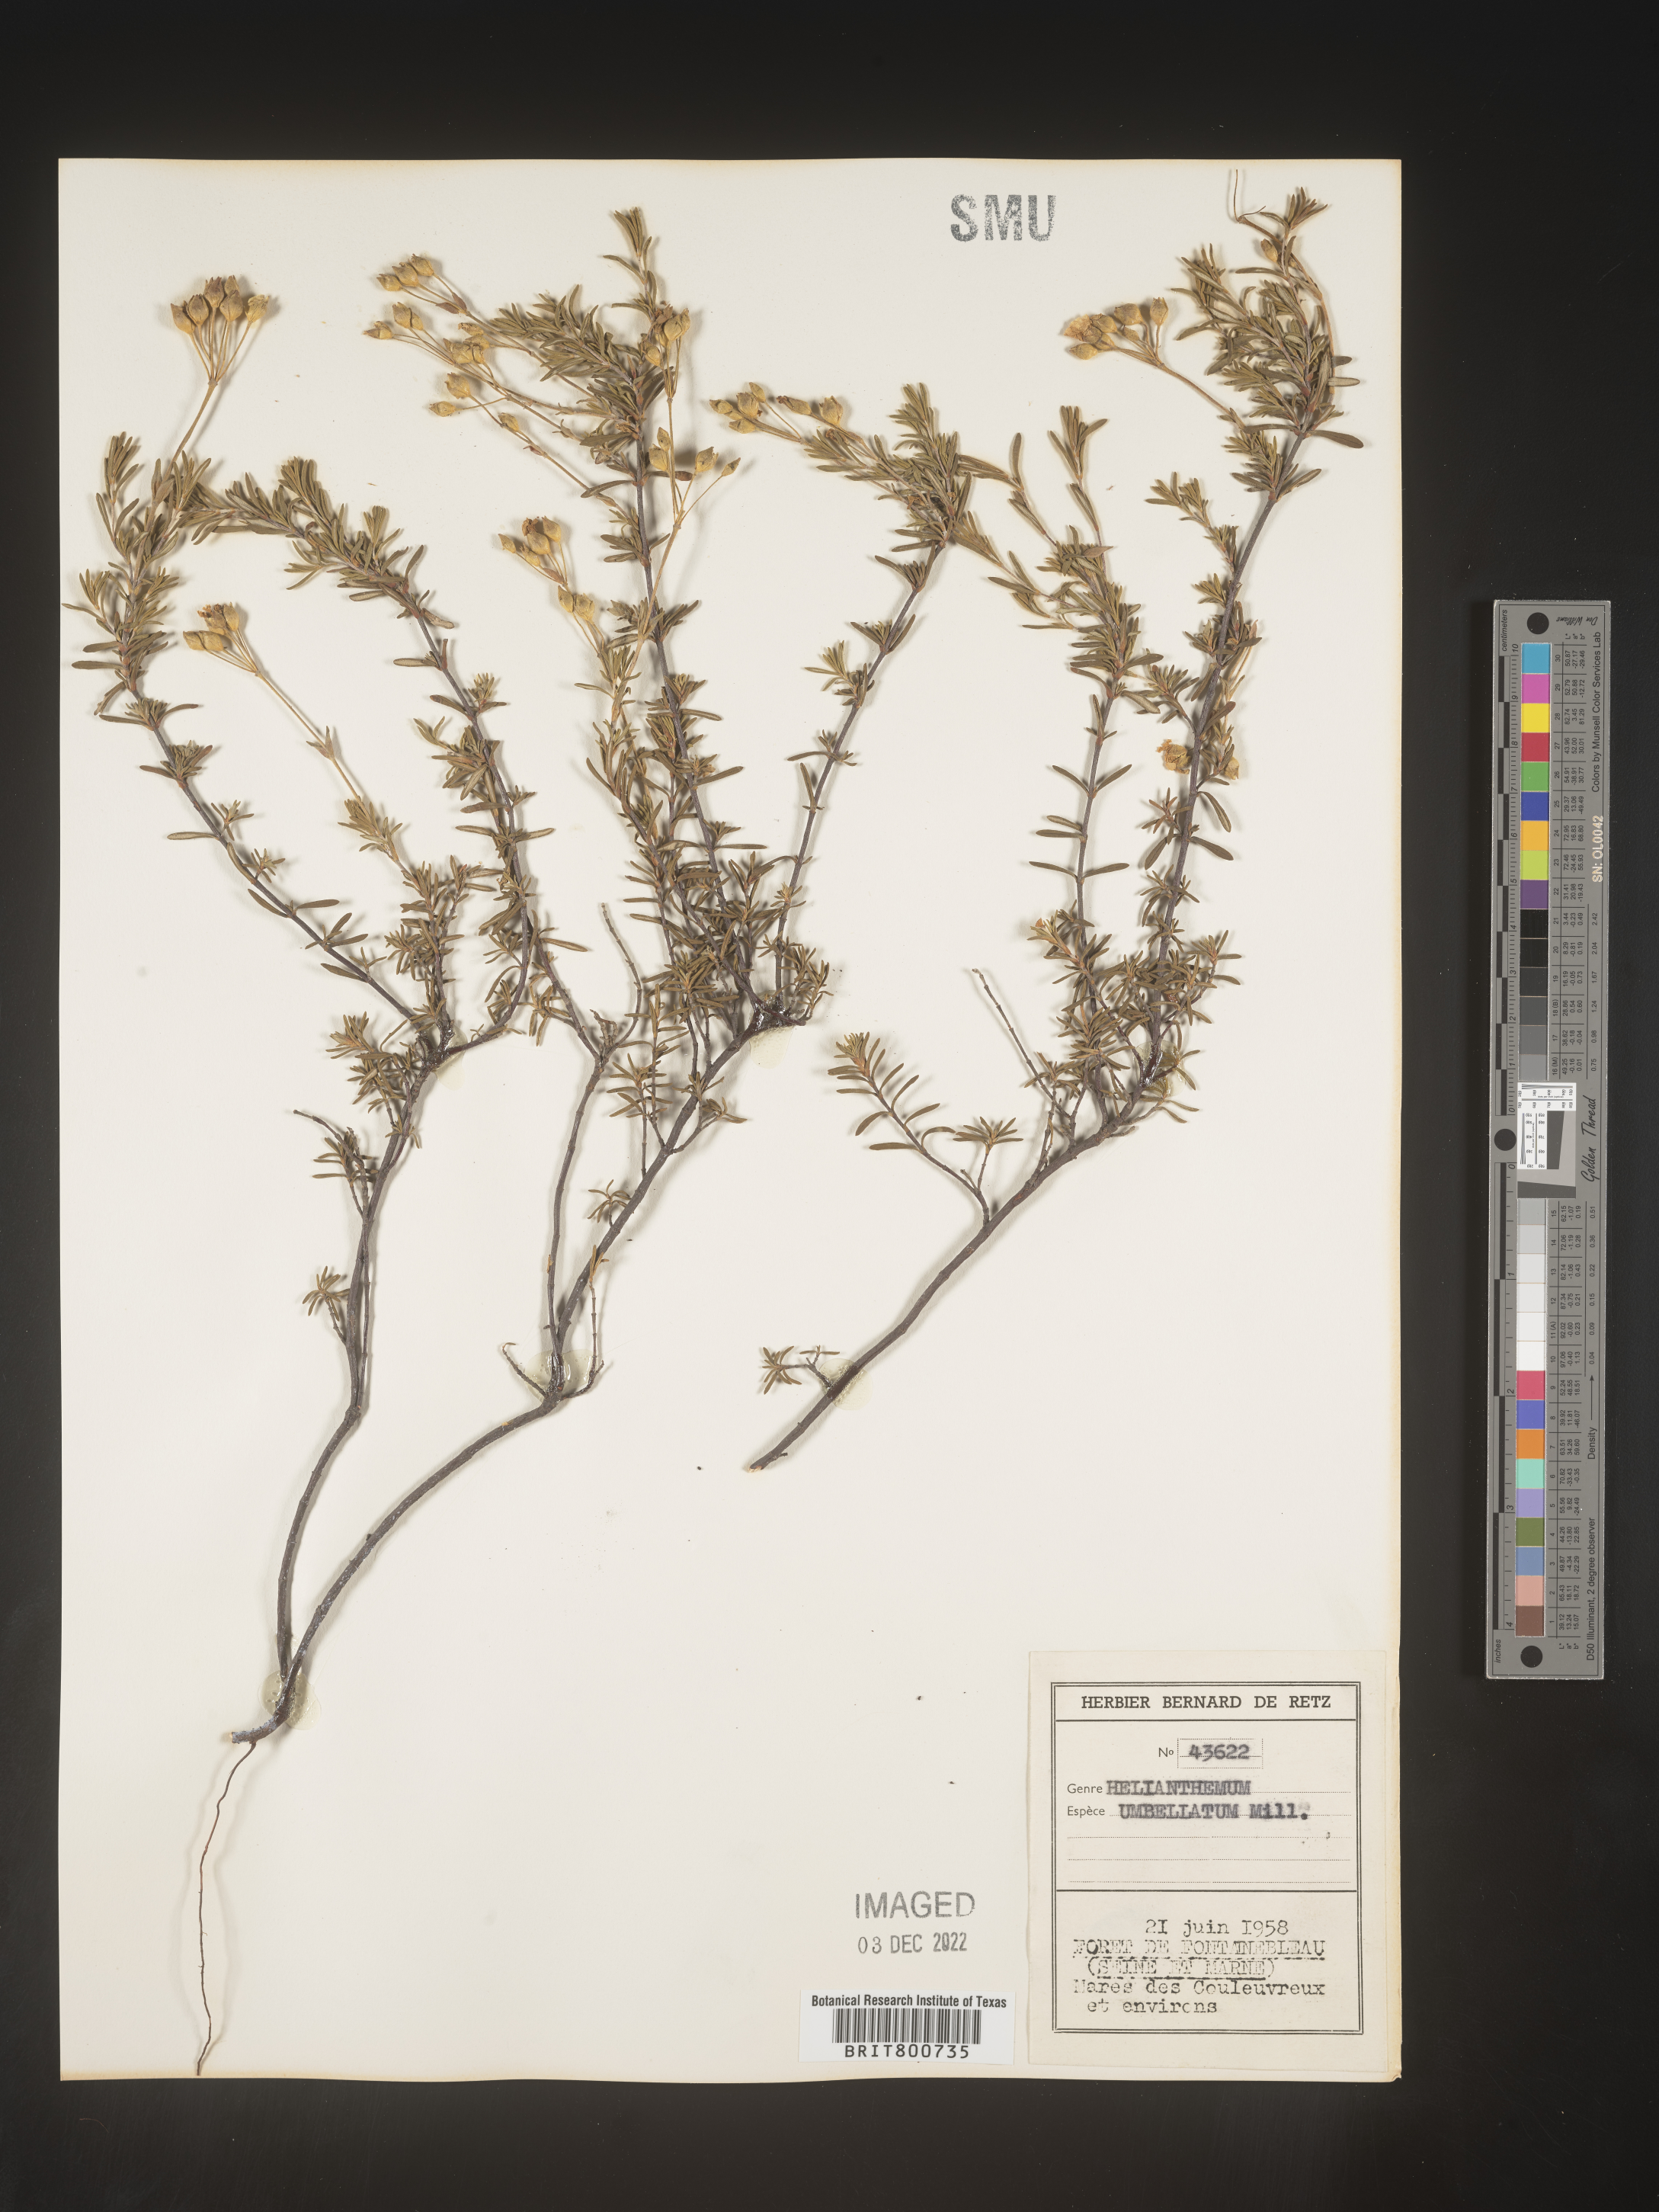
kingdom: Plantae
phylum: Tracheophyta
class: Magnoliopsida
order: Malvales
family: Cistaceae
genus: Helianthemum
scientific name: Helianthemum
